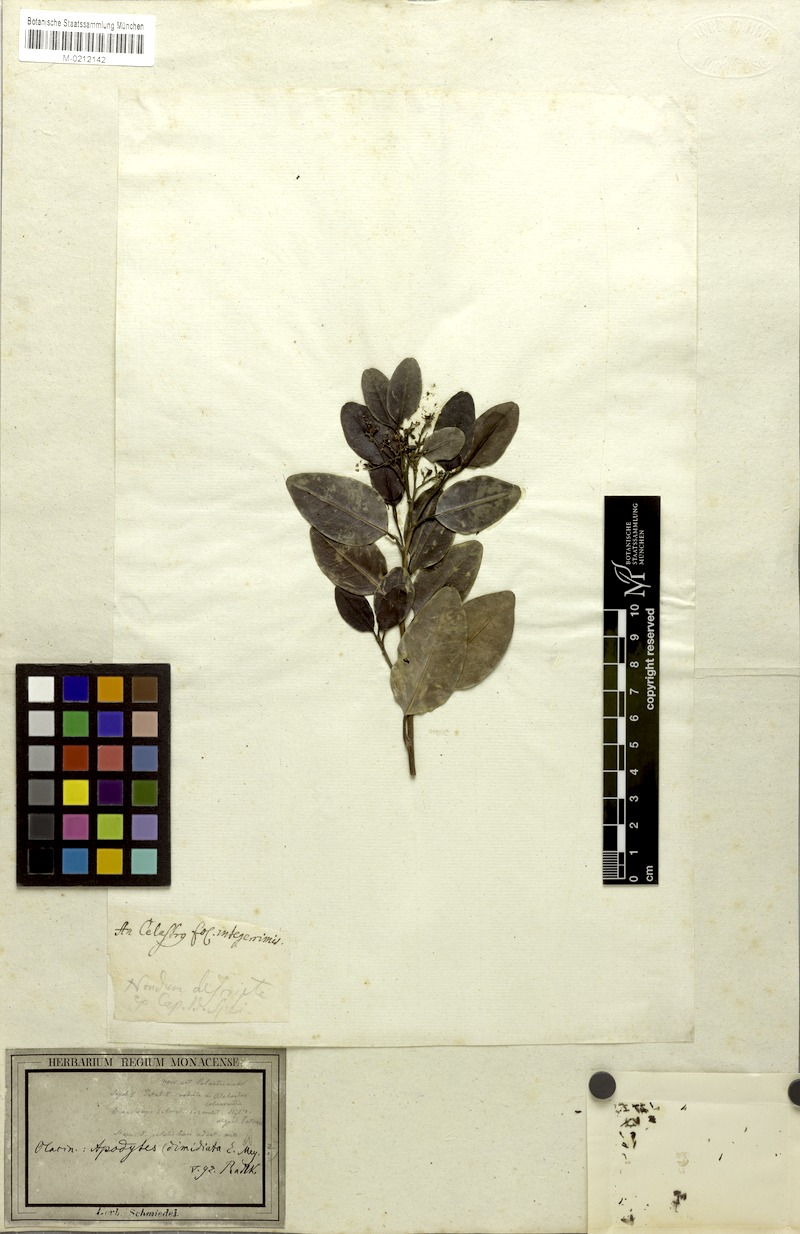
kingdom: Plantae
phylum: Tracheophyta
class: Magnoliopsida
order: Metteniusales
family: Metteniusaceae
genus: Apodytes
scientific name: Apodytes dimidiata
